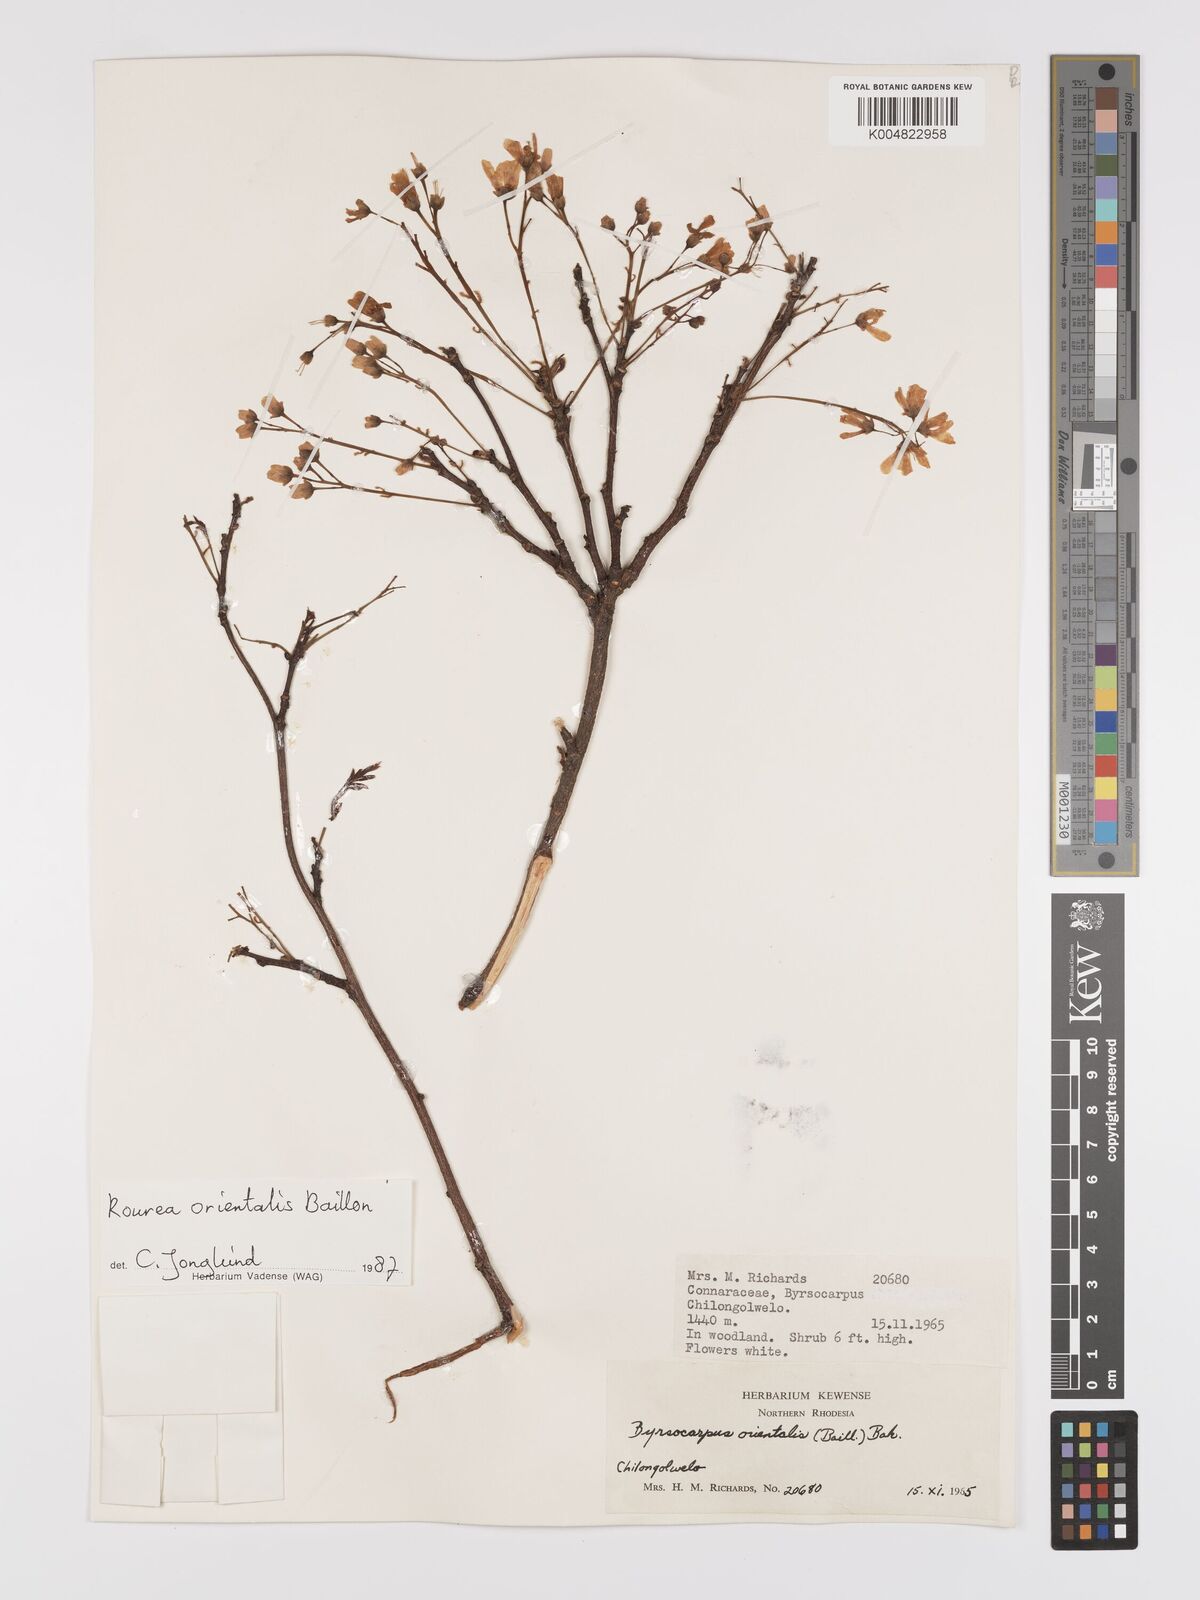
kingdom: Plantae
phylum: Tracheophyta
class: Magnoliopsida
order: Oxalidales
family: Connaraceae
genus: Rourea
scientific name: Rourea orientalis
